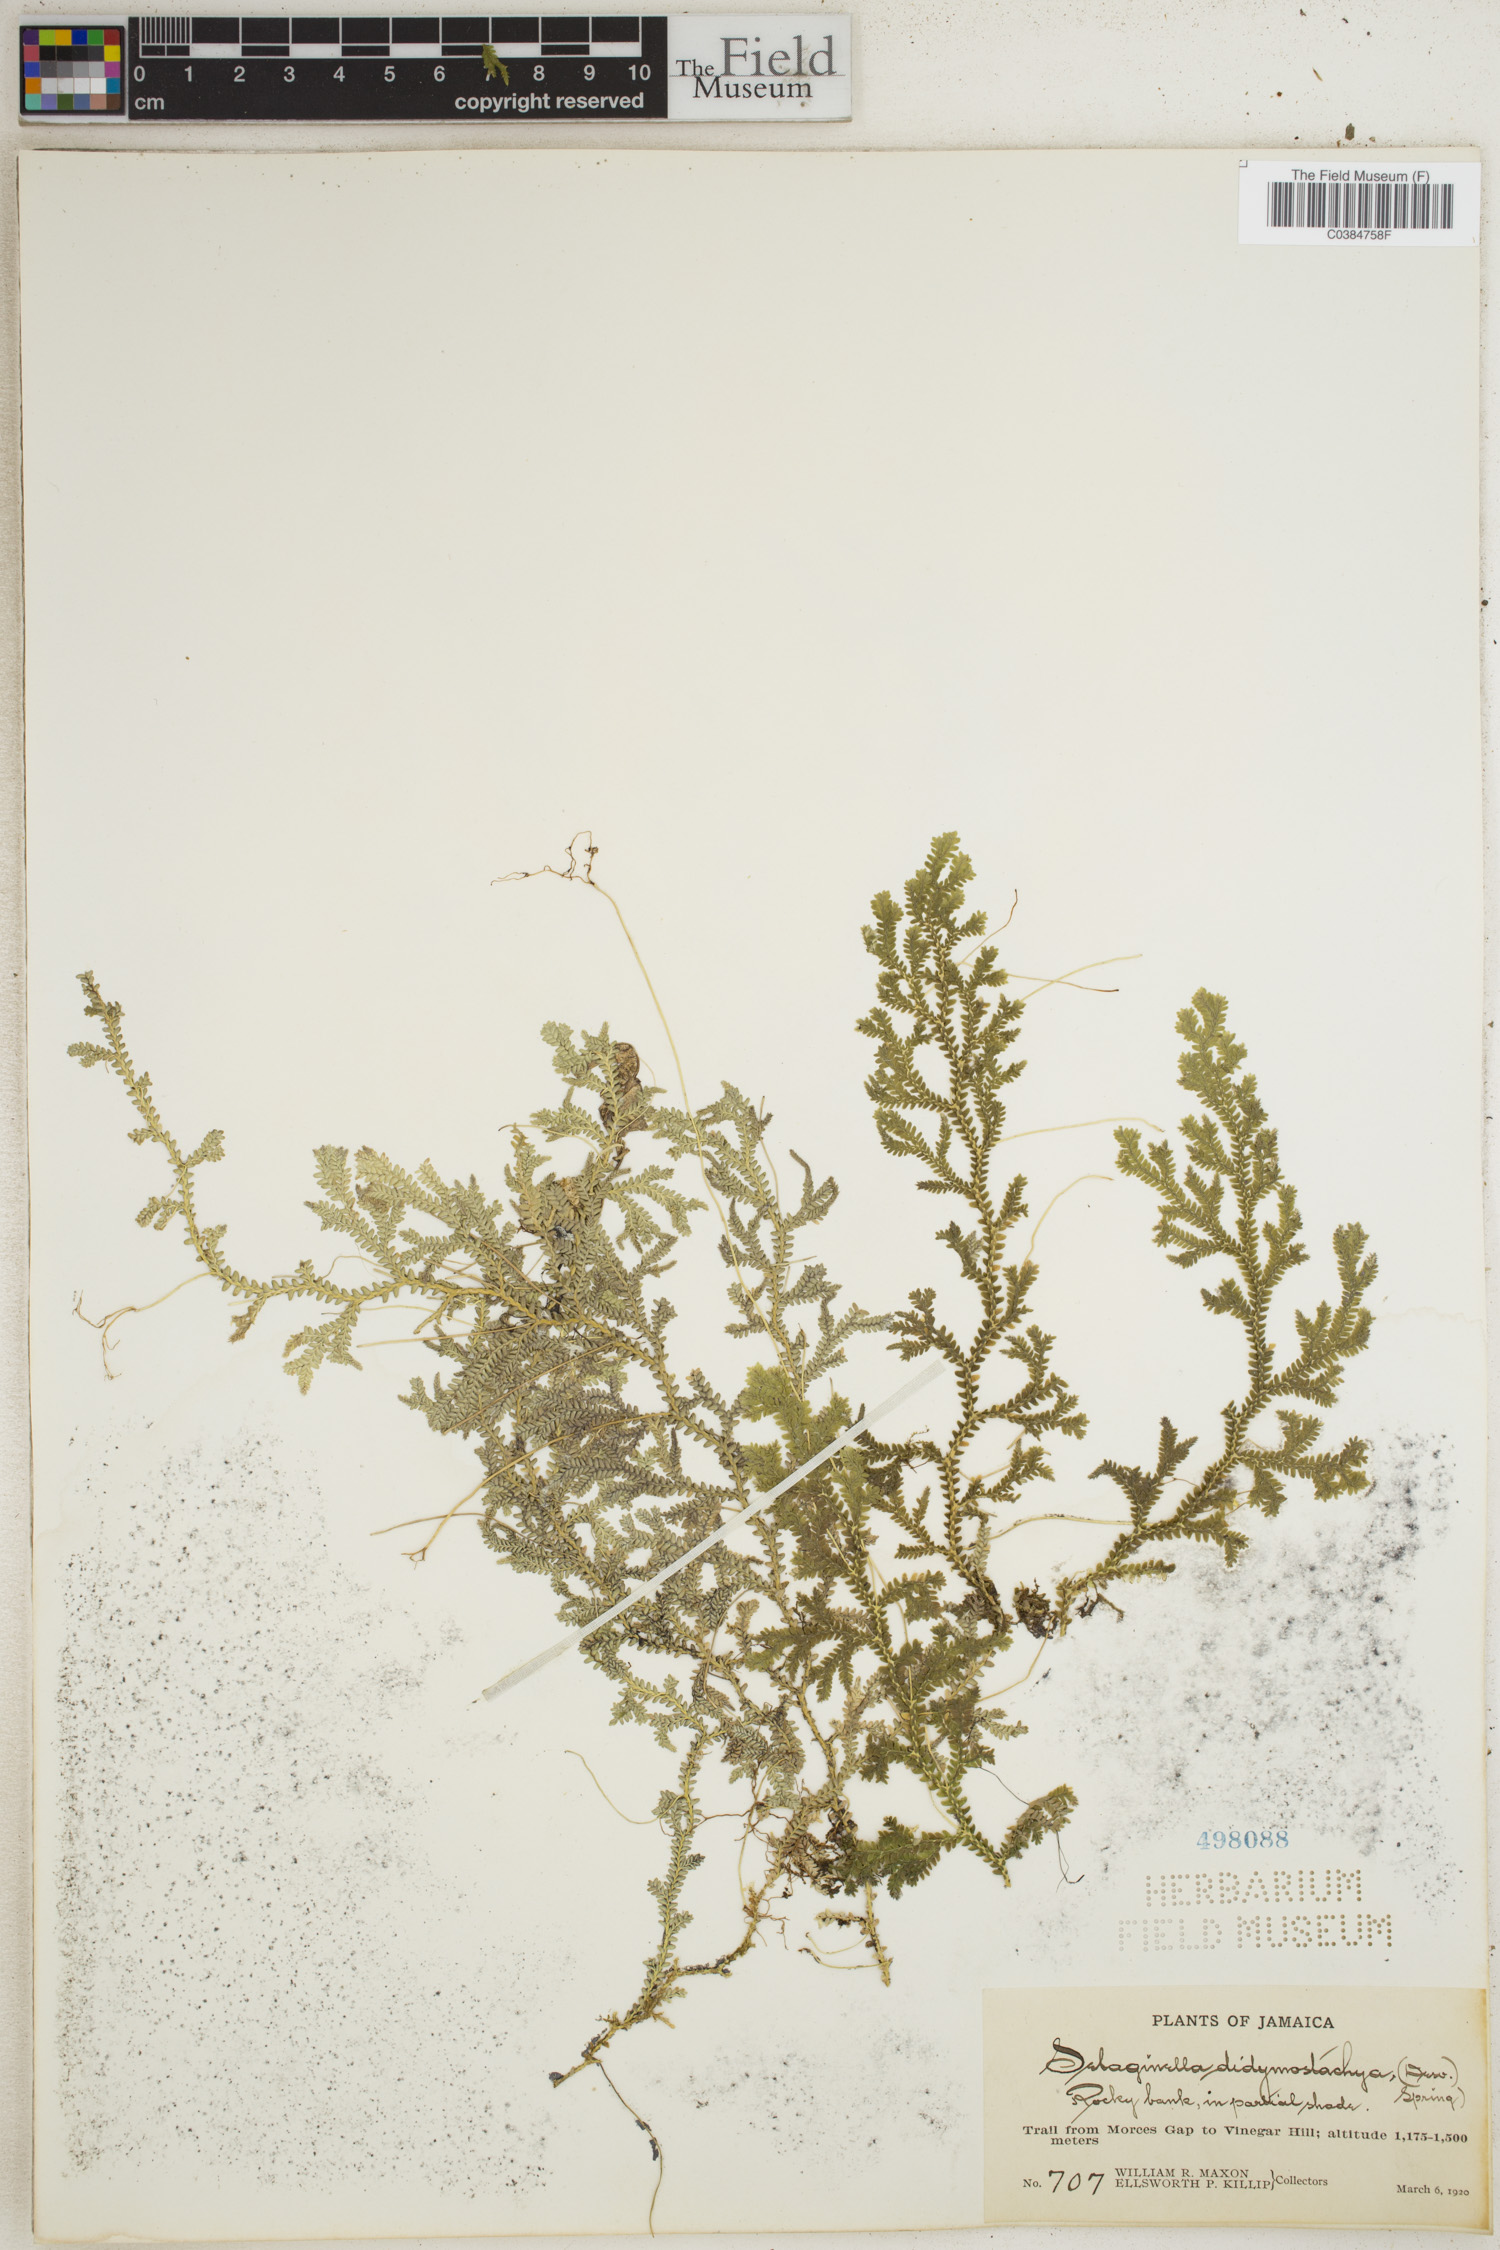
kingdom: Plantae
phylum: Tracheophyta
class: Lycopodiopsida
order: Selaginellales
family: Selaginellaceae
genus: Selaginella
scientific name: Selaginella denudata
